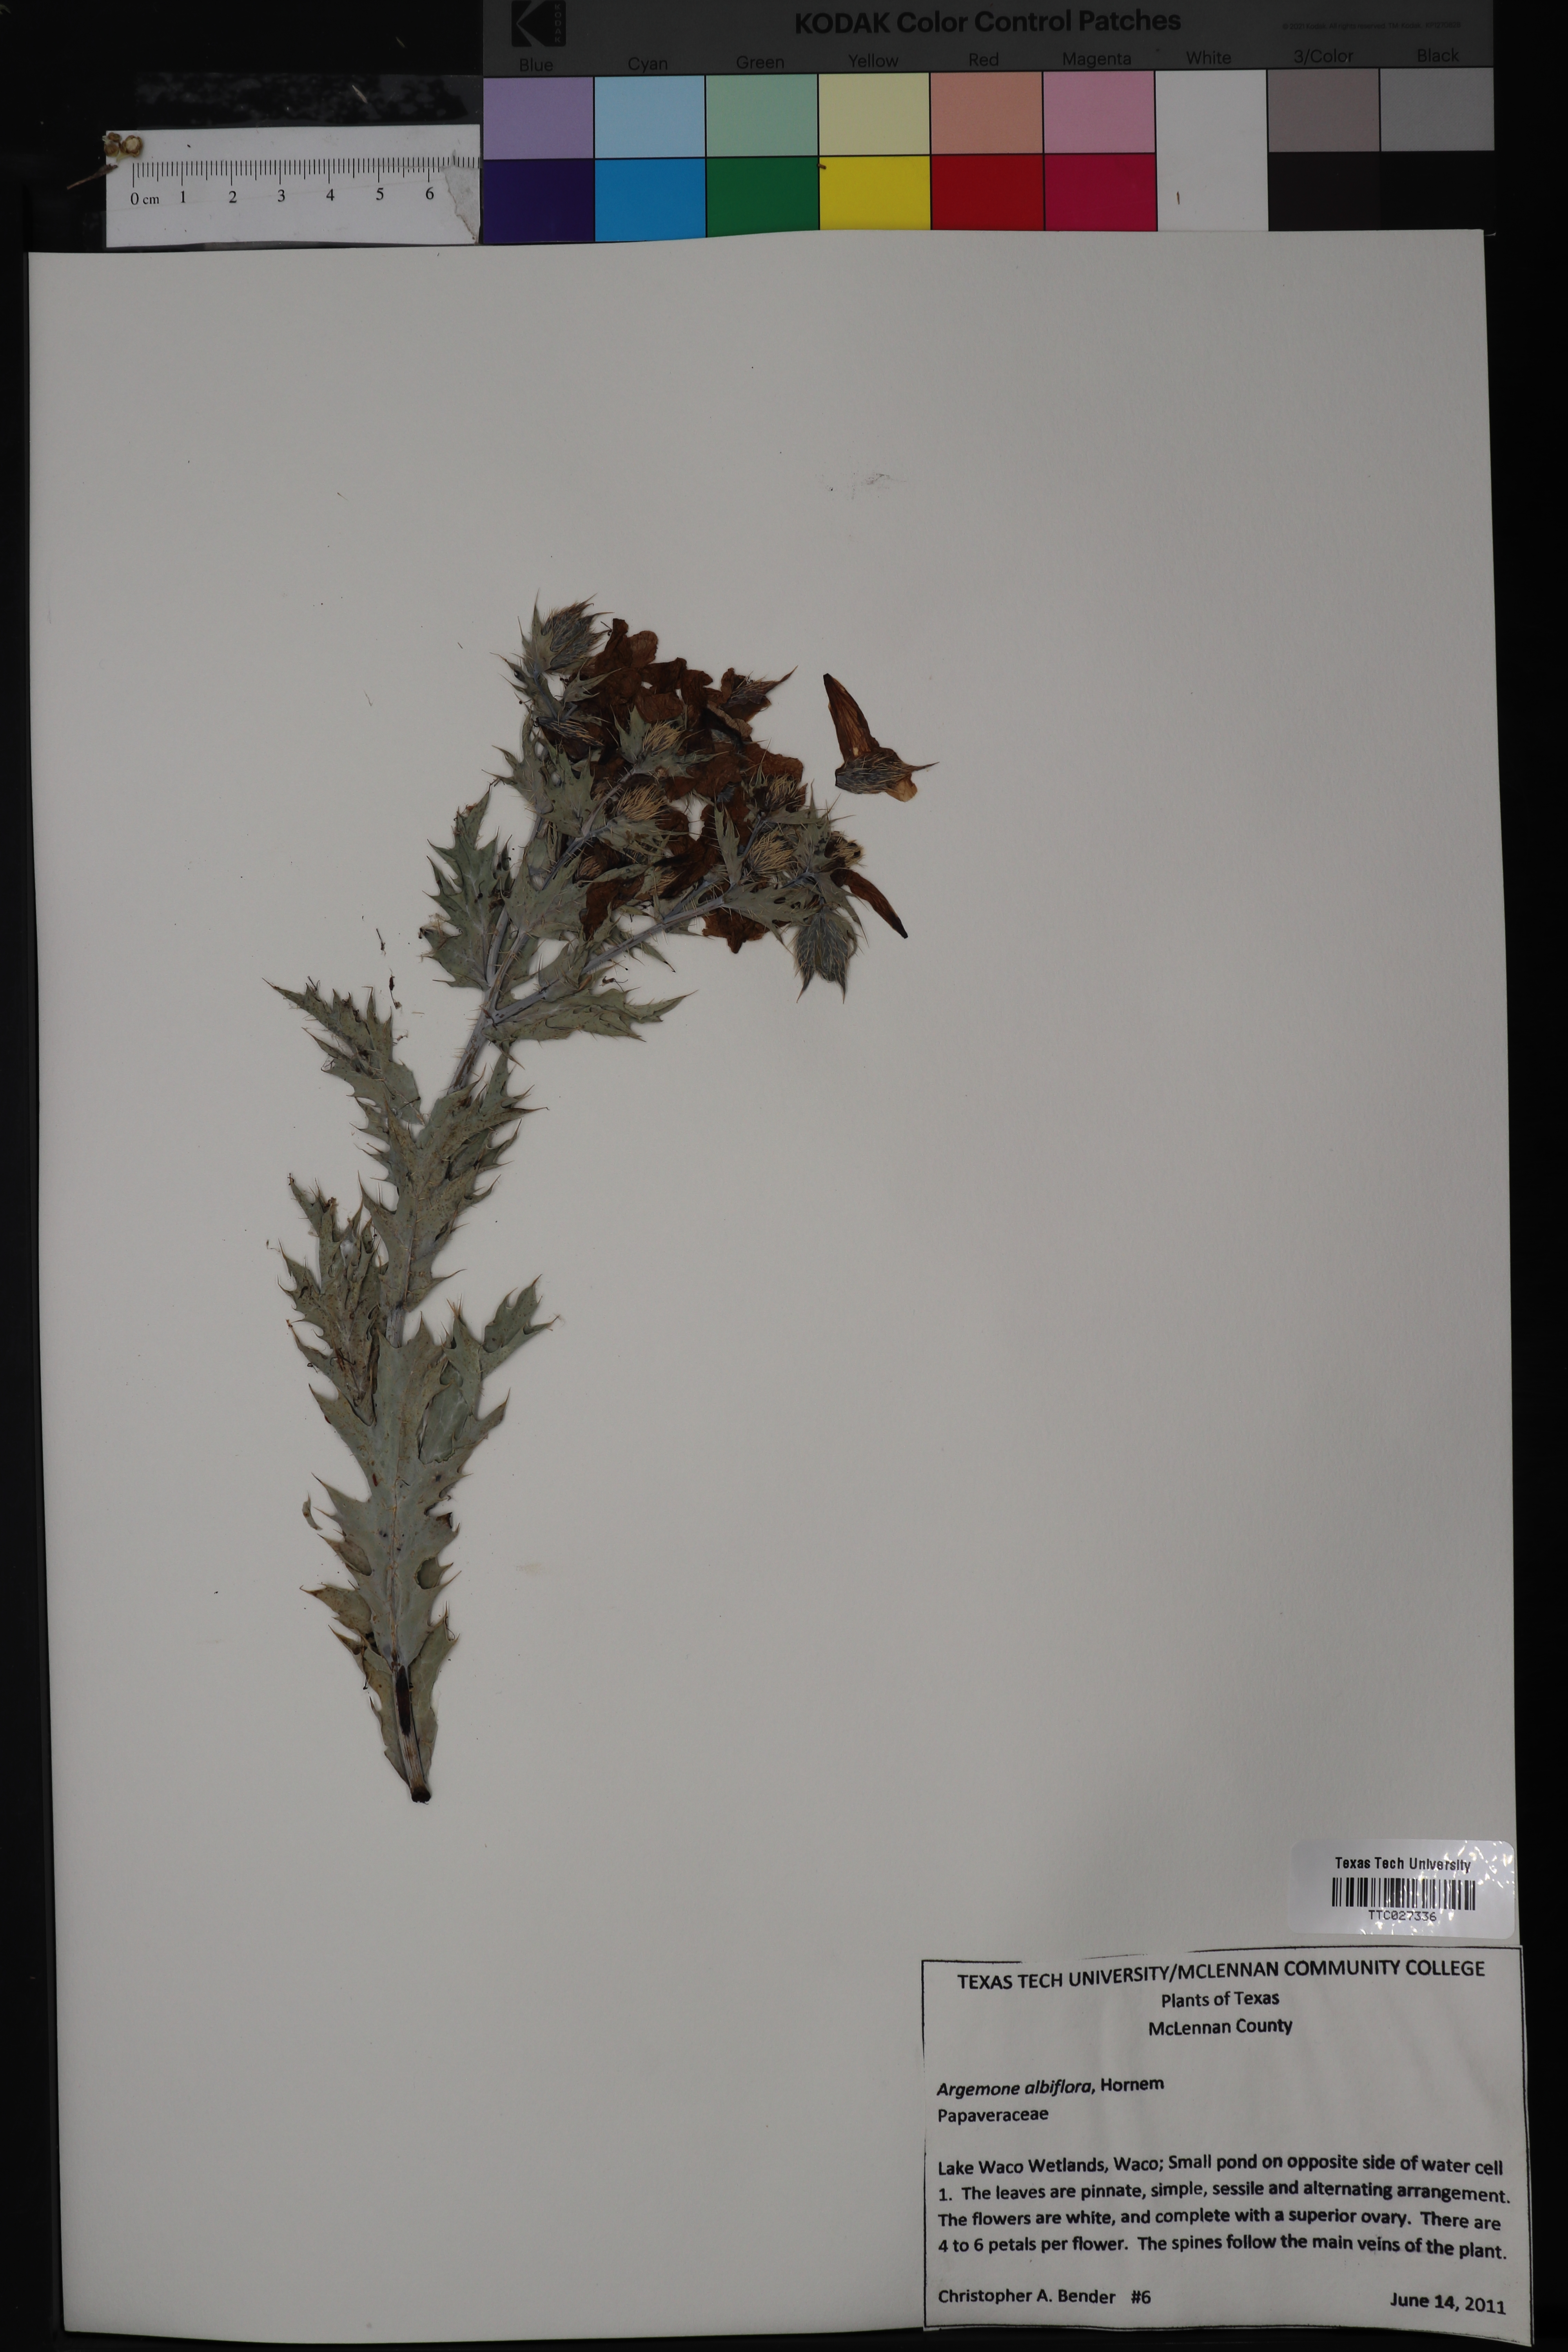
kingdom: Plantae
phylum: Tracheophyta
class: Magnoliopsida
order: Ranunculales
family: Papaveraceae
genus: Argemone
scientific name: Argemone albiflora
